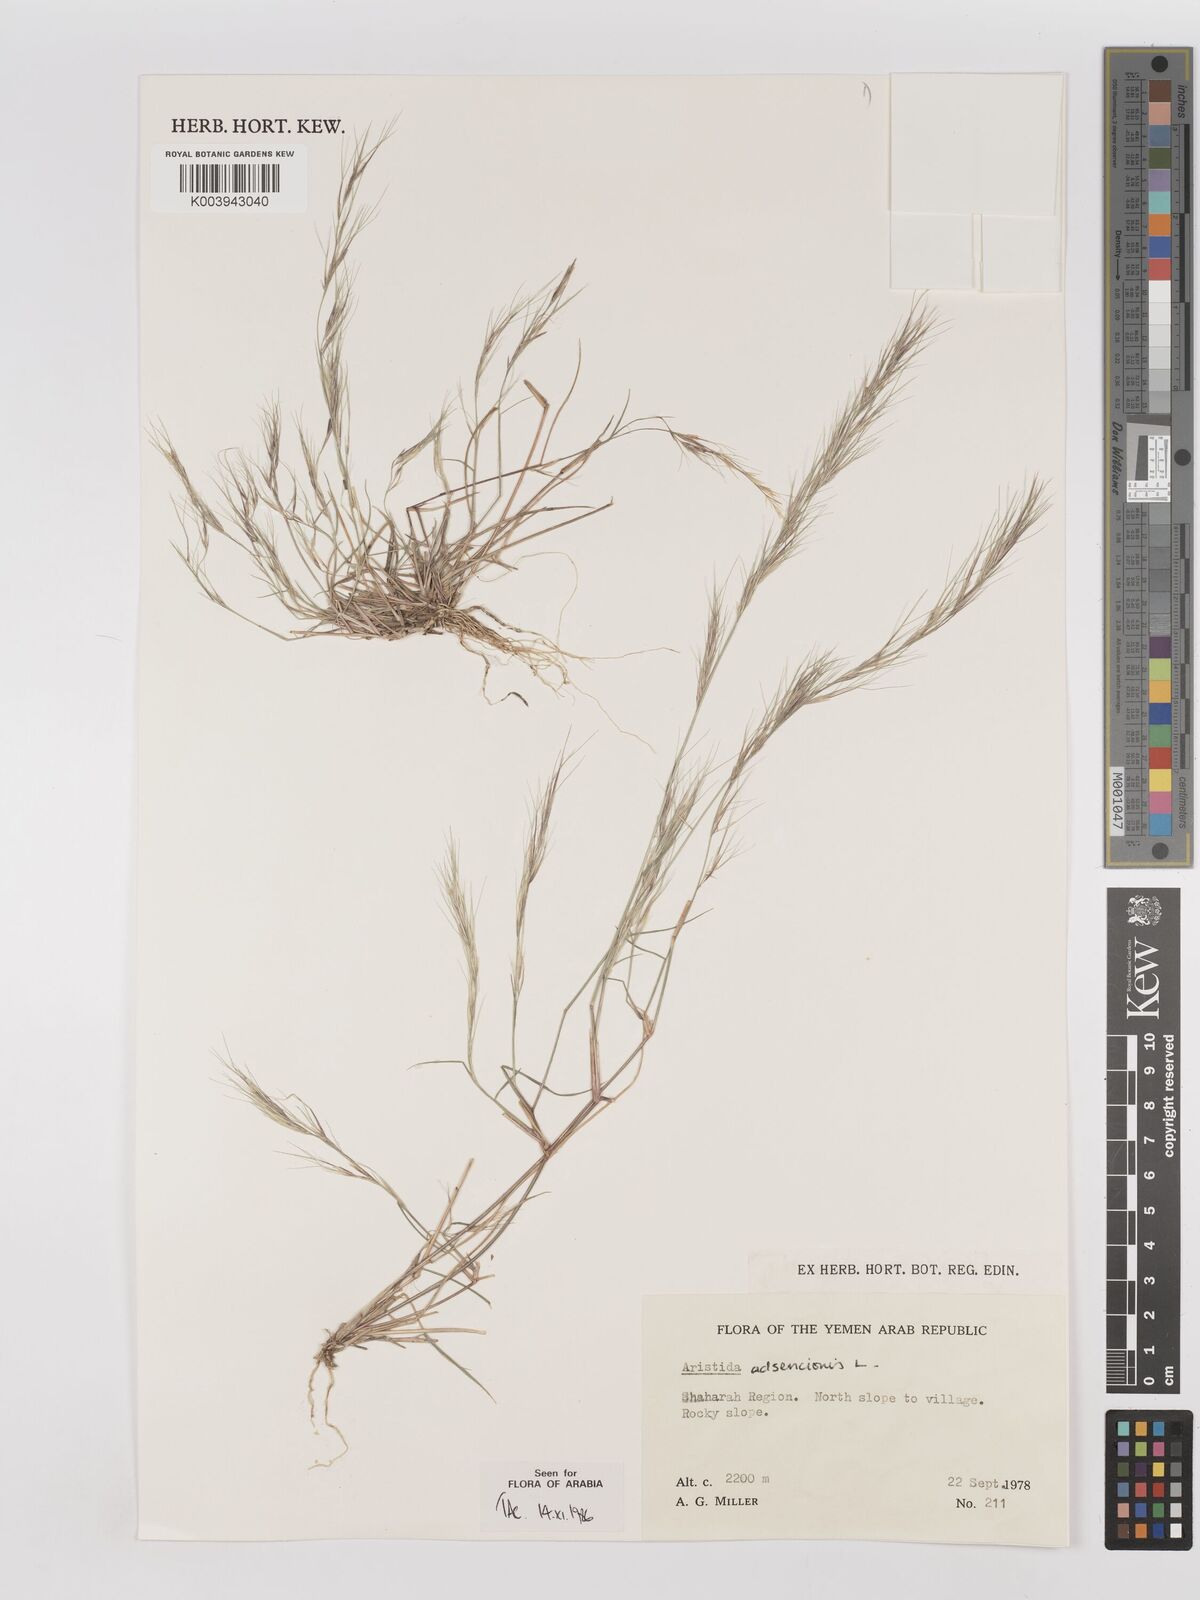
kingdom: Plantae
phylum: Tracheophyta
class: Liliopsida
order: Poales
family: Poaceae
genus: Aristida
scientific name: Aristida adscensionis
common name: Sixweeks threeawn
